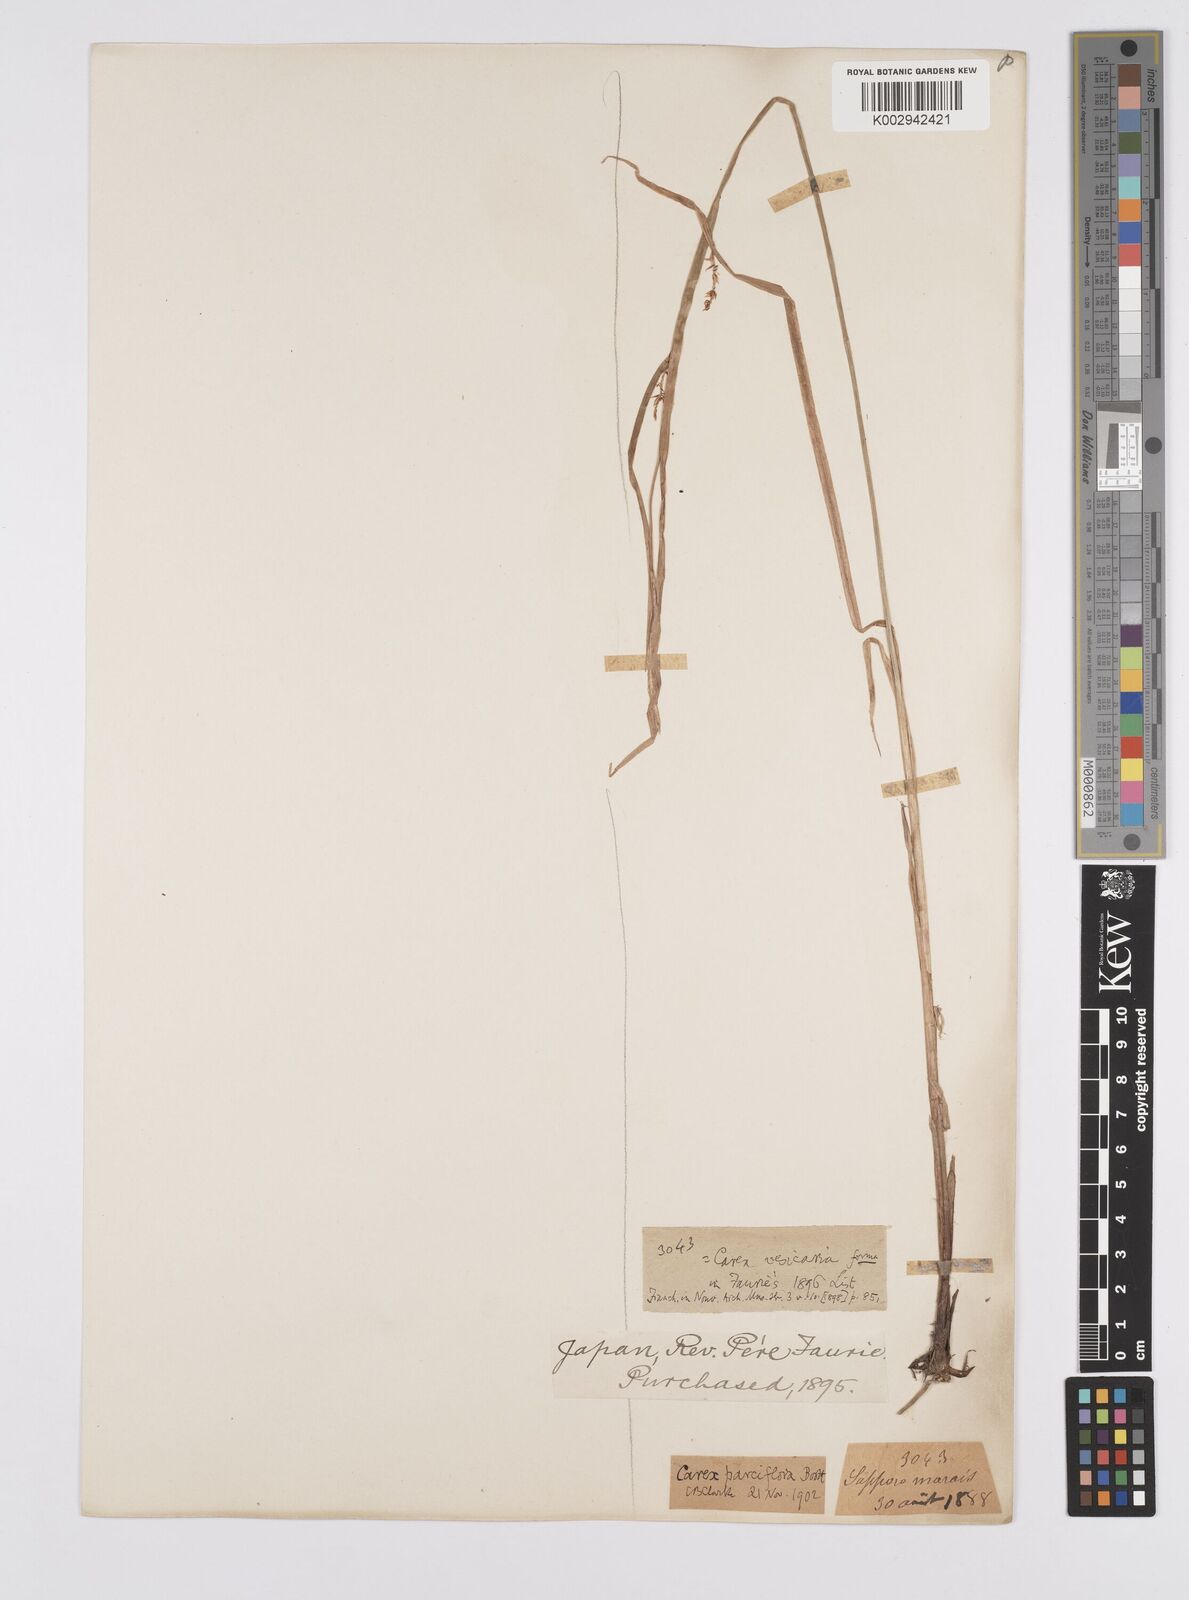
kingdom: Plantae
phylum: Tracheophyta
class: Liliopsida
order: Poales
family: Cyperaceae
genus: Carex
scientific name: Carex parciflora
